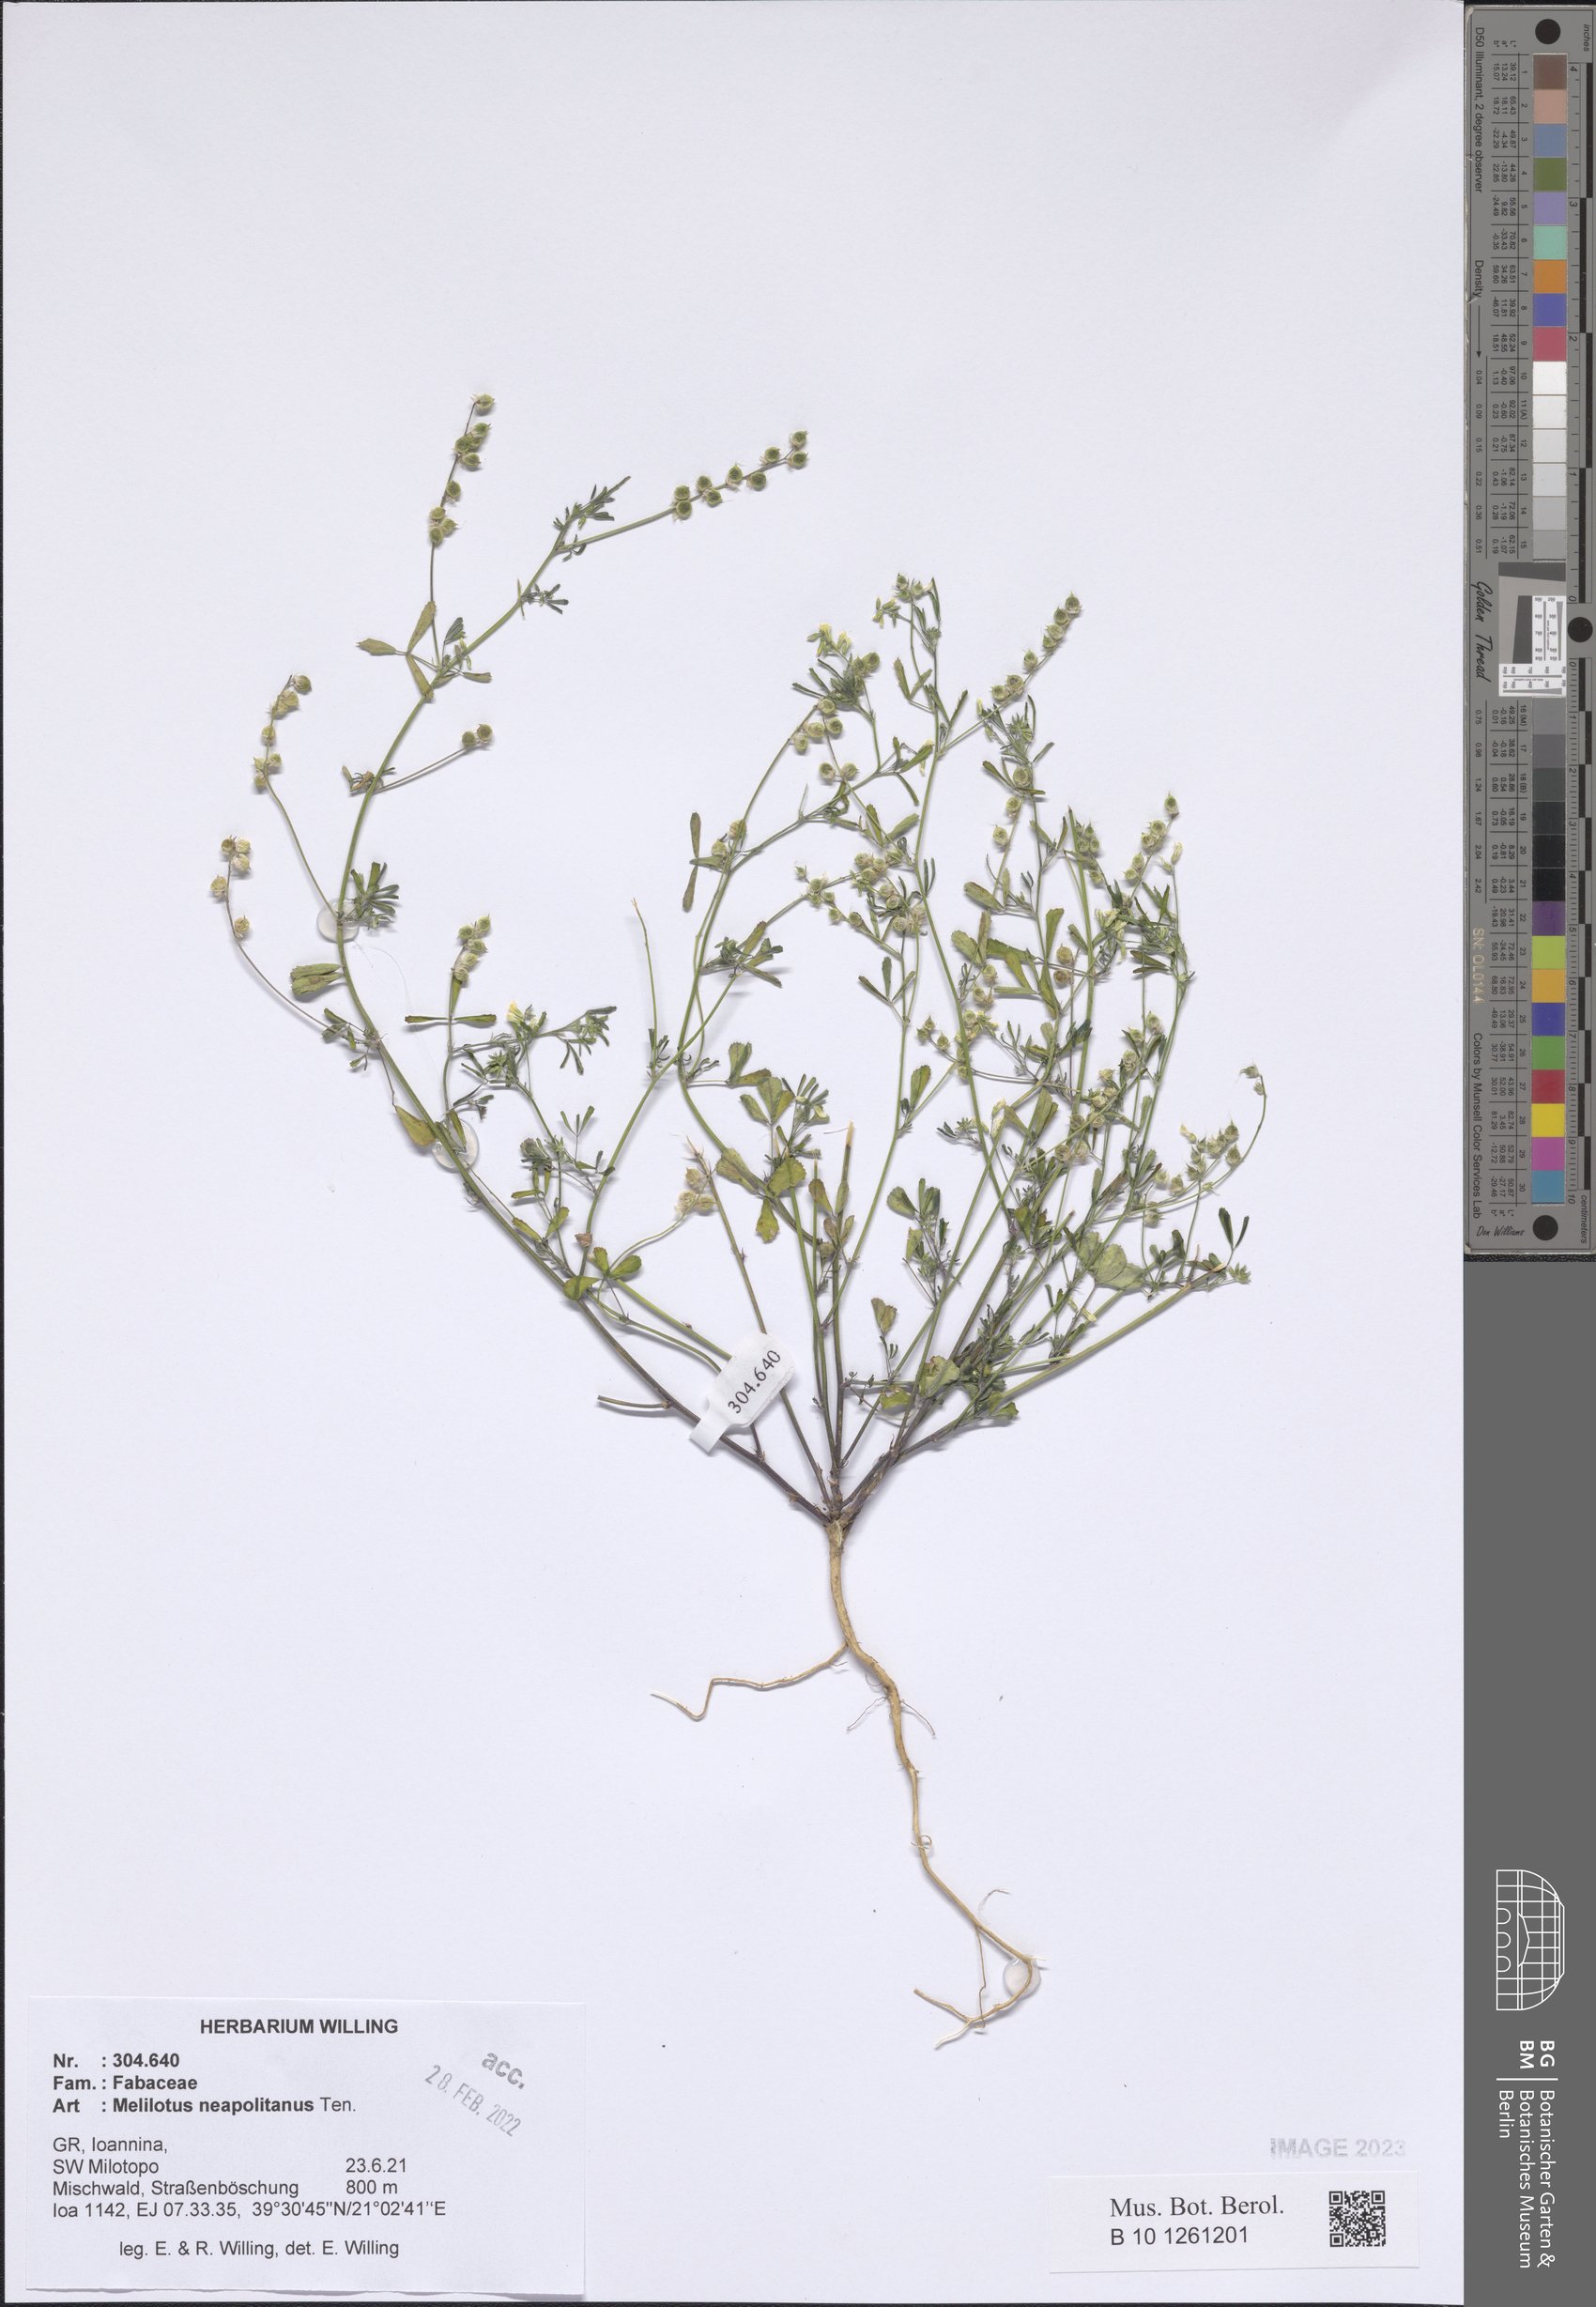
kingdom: Plantae
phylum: Tracheophyta
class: Magnoliopsida
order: Fabales
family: Fabaceae
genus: Melilotus
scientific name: Melilotus neapolitanus
